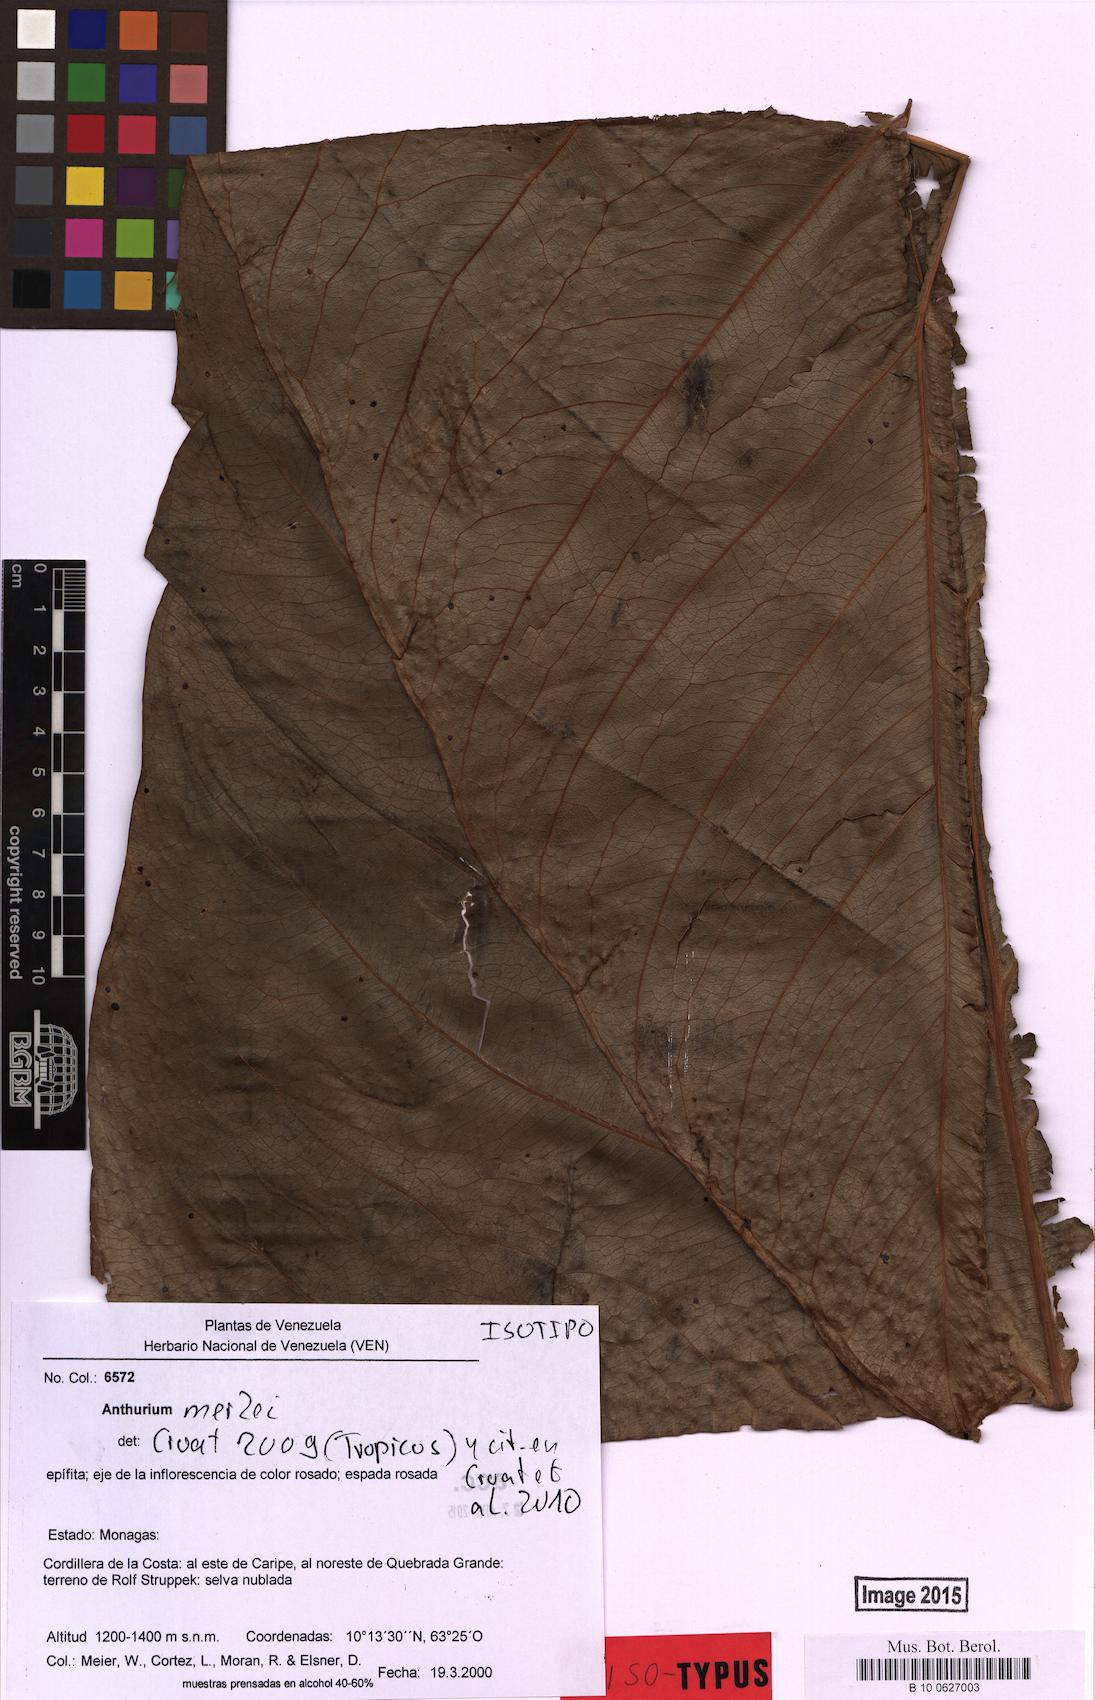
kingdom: Plantae
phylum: Tracheophyta
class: Liliopsida
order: Alismatales
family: Araceae
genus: Anthurium
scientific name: Anthurium merlei
